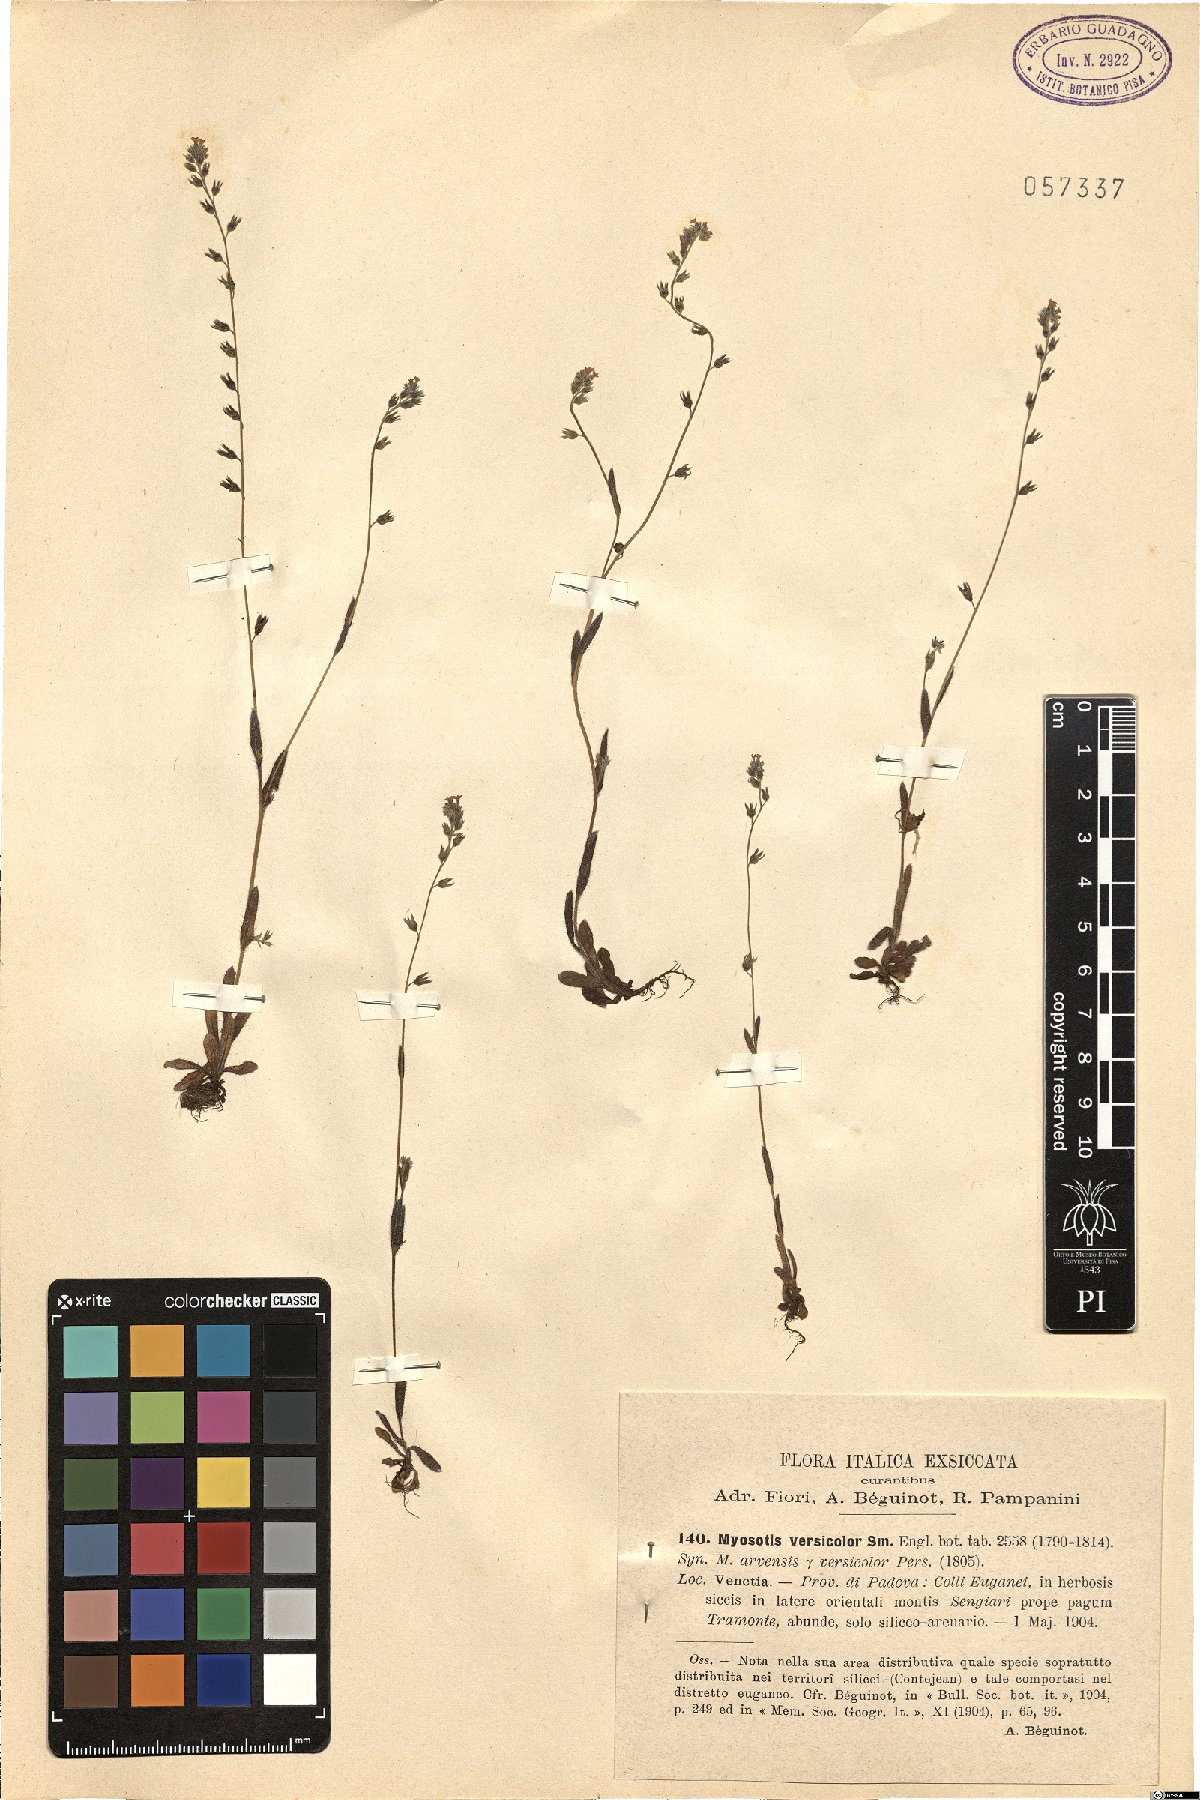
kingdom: Plantae
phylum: Tracheophyta
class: Magnoliopsida
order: Boraginales
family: Boraginaceae
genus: Myosotis
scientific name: Myosotis discolor
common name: Changing forget-me-not
